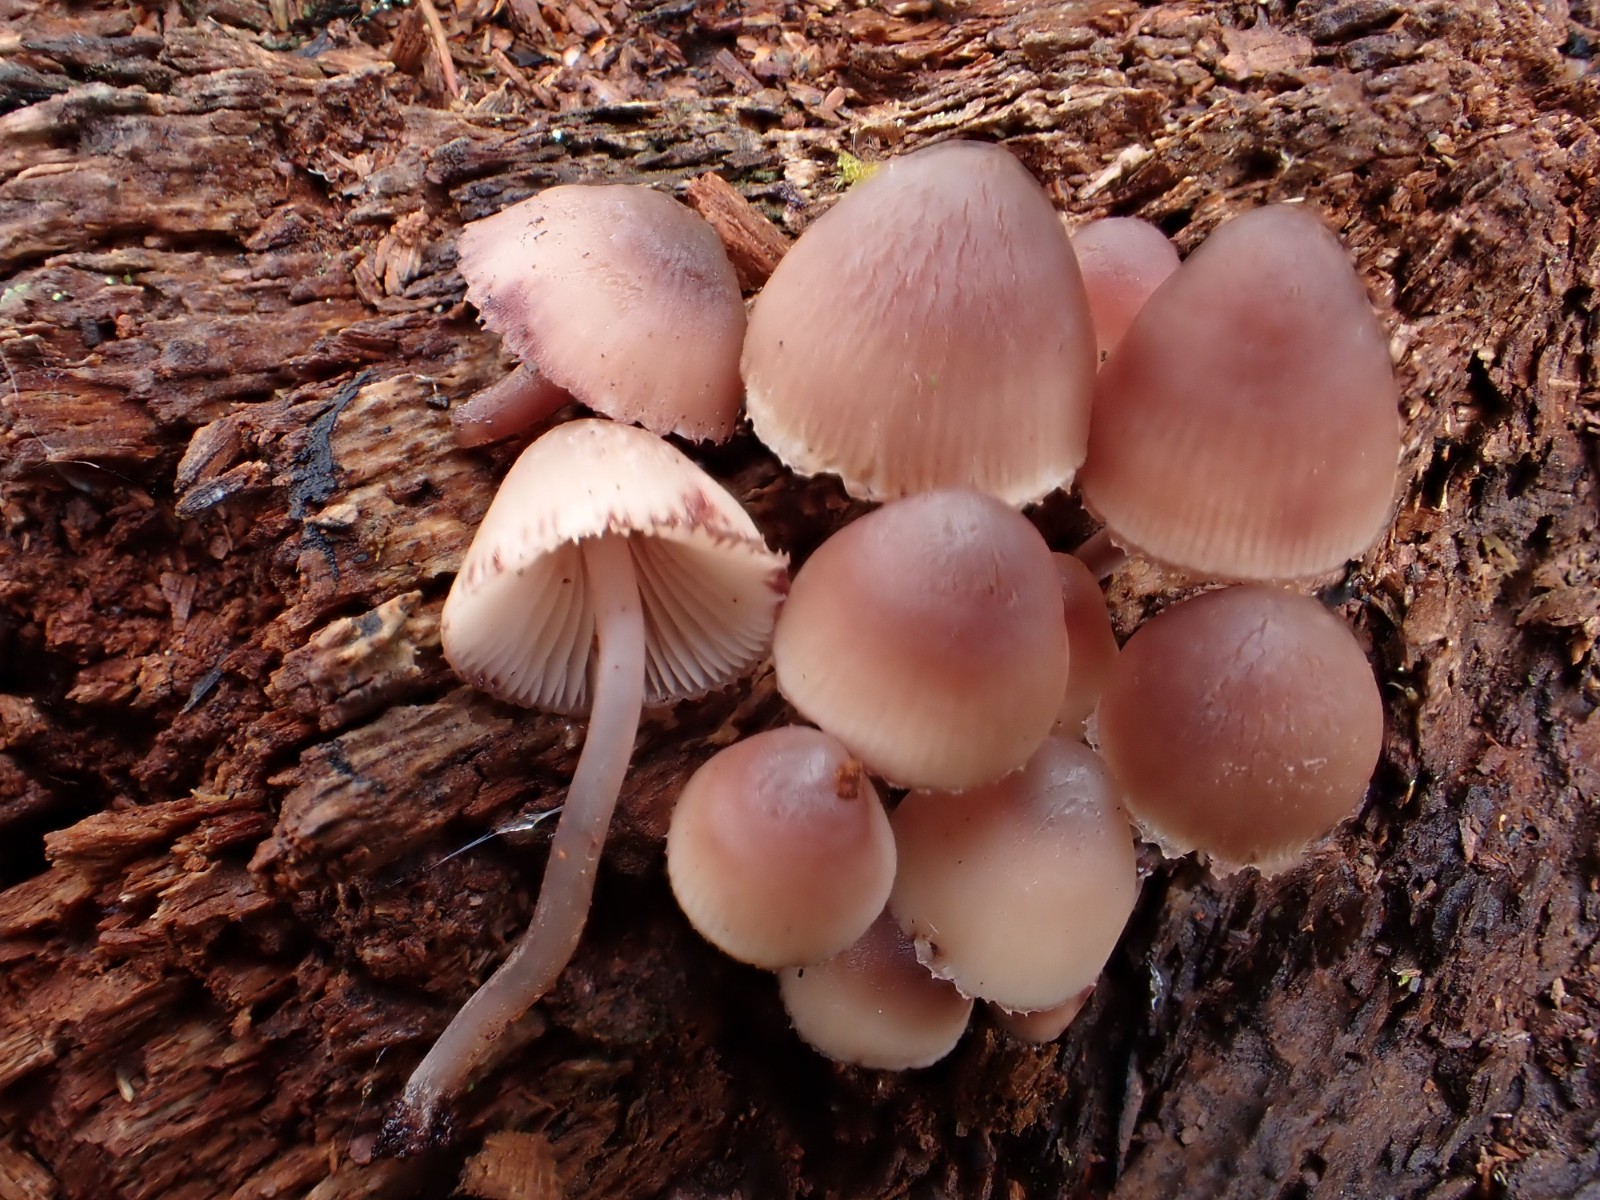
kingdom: Fungi
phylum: Basidiomycota
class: Agaricomycetes
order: Agaricales
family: Mycenaceae
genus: Mycena
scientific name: Mycena haematopus
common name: blødende huesvamp
